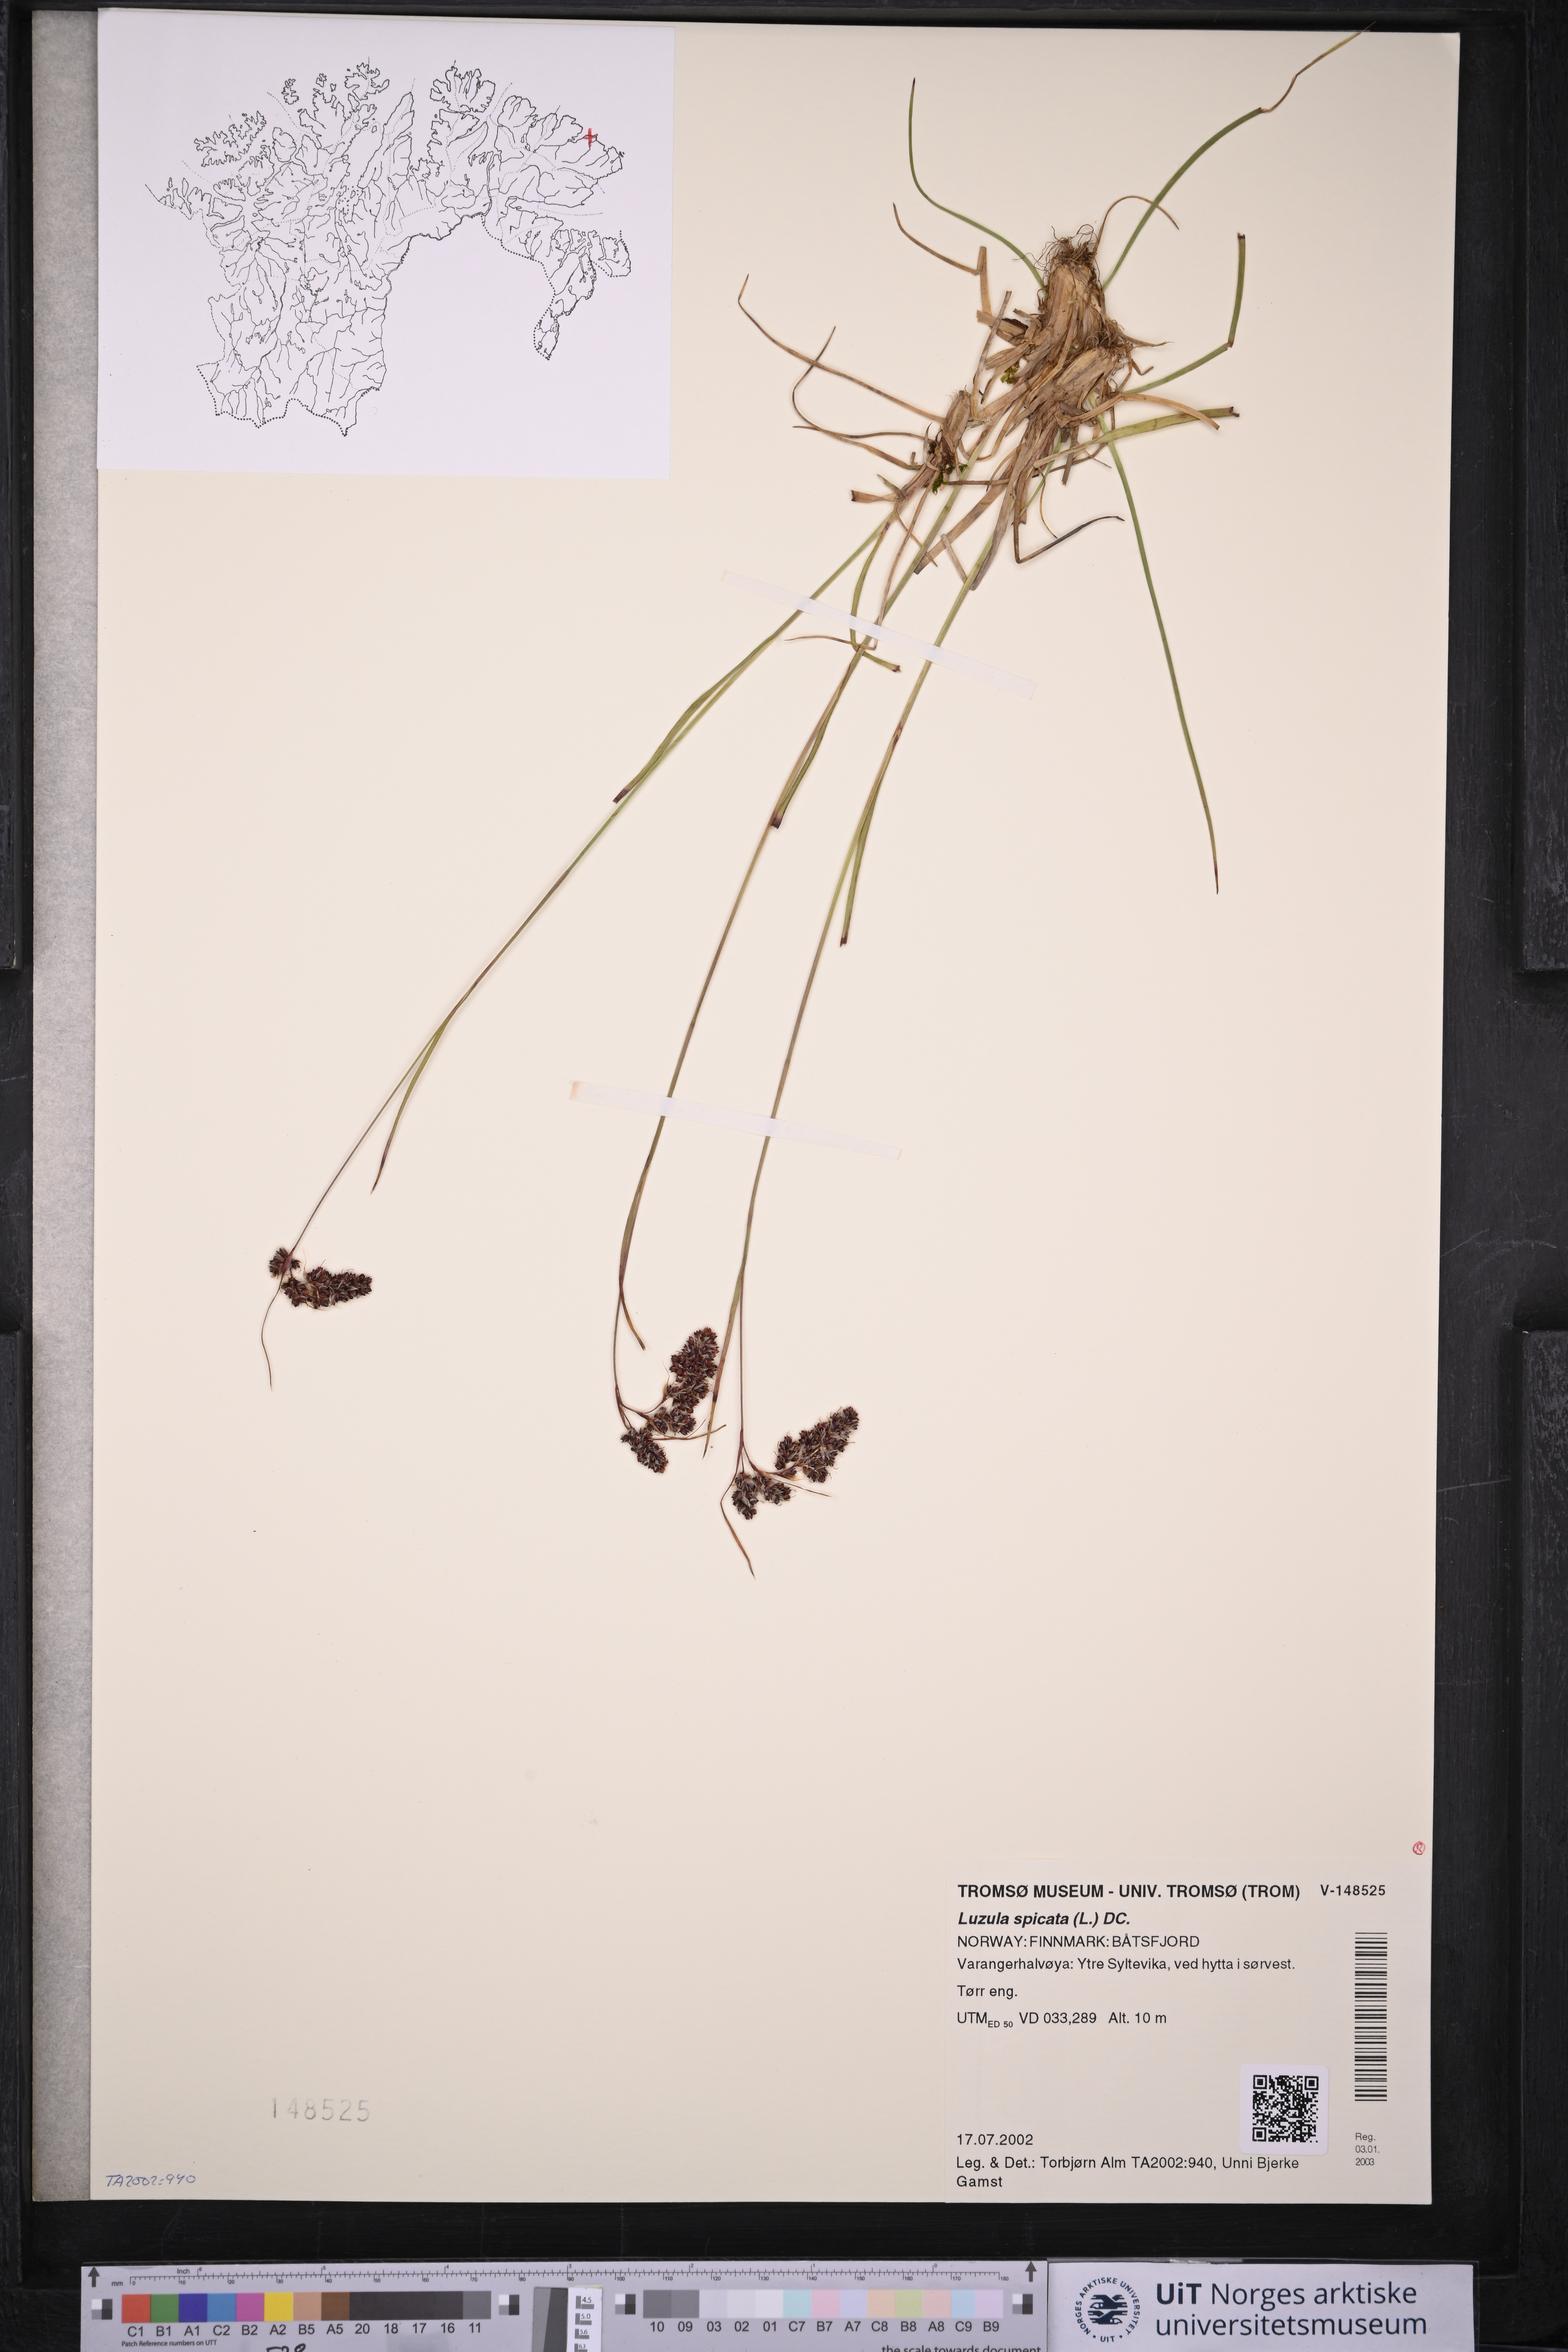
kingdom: Plantae
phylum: Tracheophyta
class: Liliopsida
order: Poales
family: Juncaceae
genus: Luzula
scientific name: Luzula spicata
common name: Spiked wood-rush
